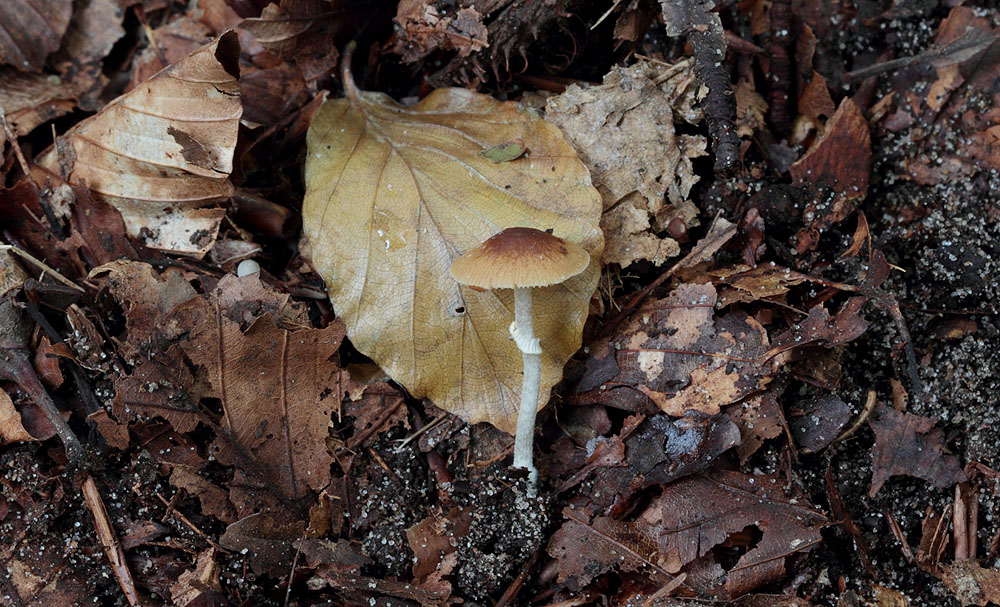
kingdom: Fungi
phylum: Basidiomycota
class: Agaricomycetes
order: Agaricales
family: Bolbitiaceae
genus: Conocybe
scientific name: Conocybe arrhenii
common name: ring-dansehat
